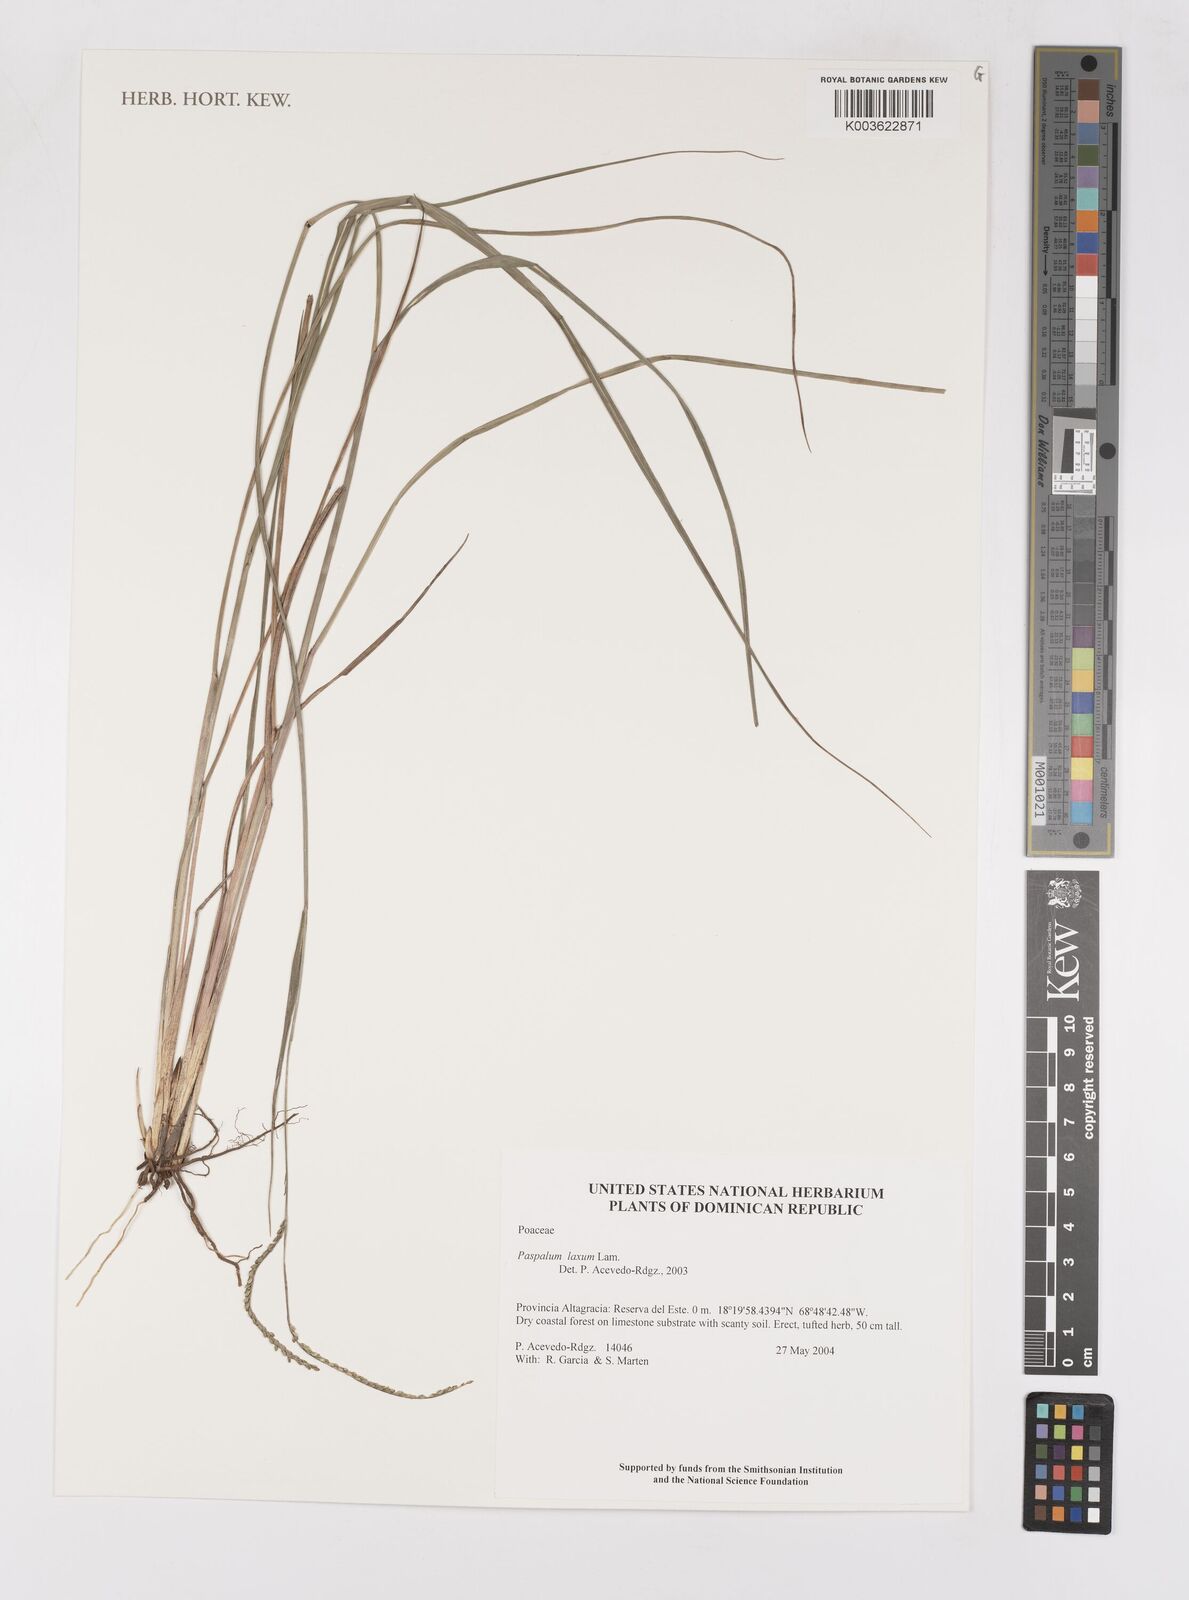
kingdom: Plantae
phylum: Tracheophyta
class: Liliopsida
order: Poales
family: Poaceae
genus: Paspalum
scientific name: Paspalum laxum
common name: Coconut paspalum
